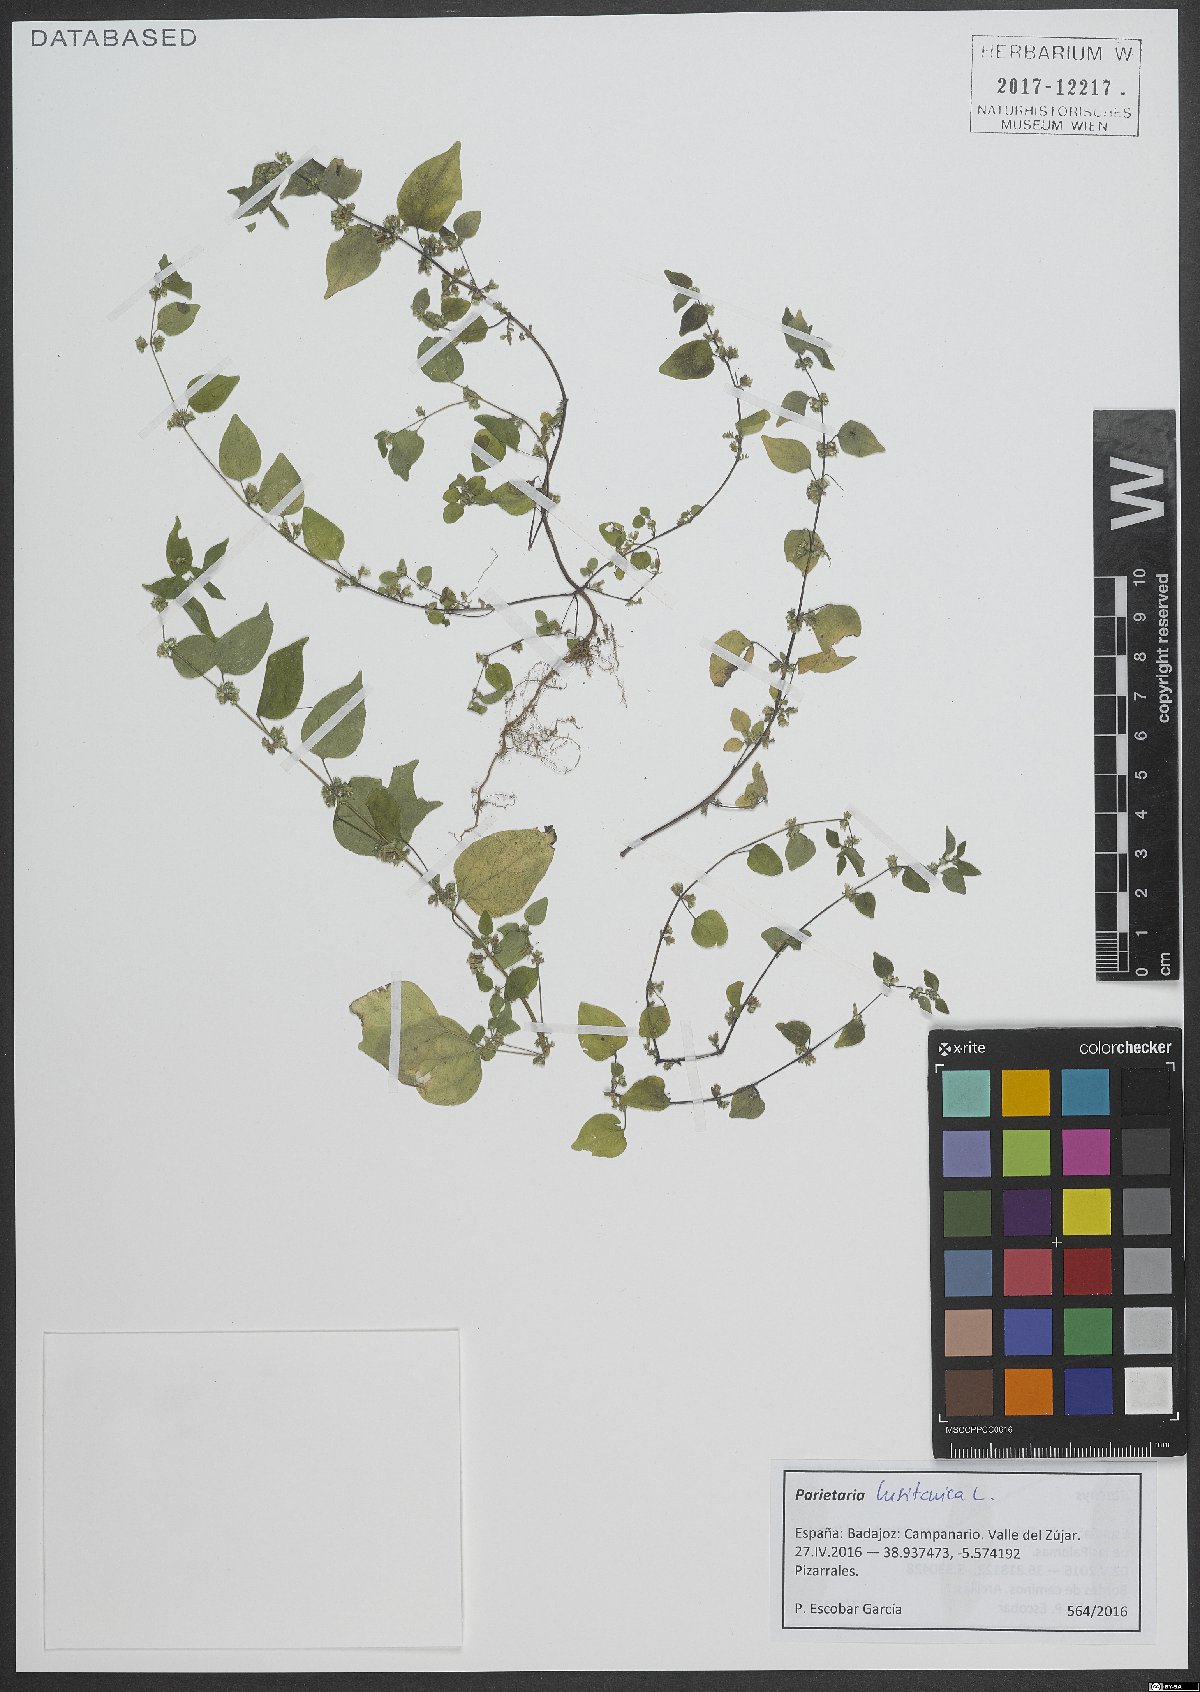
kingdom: Plantae
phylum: Tracheophyta
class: Magnoliopsida
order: Rosales
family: Urticaceae
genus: Parietaria
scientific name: Parietaria lusitanica
